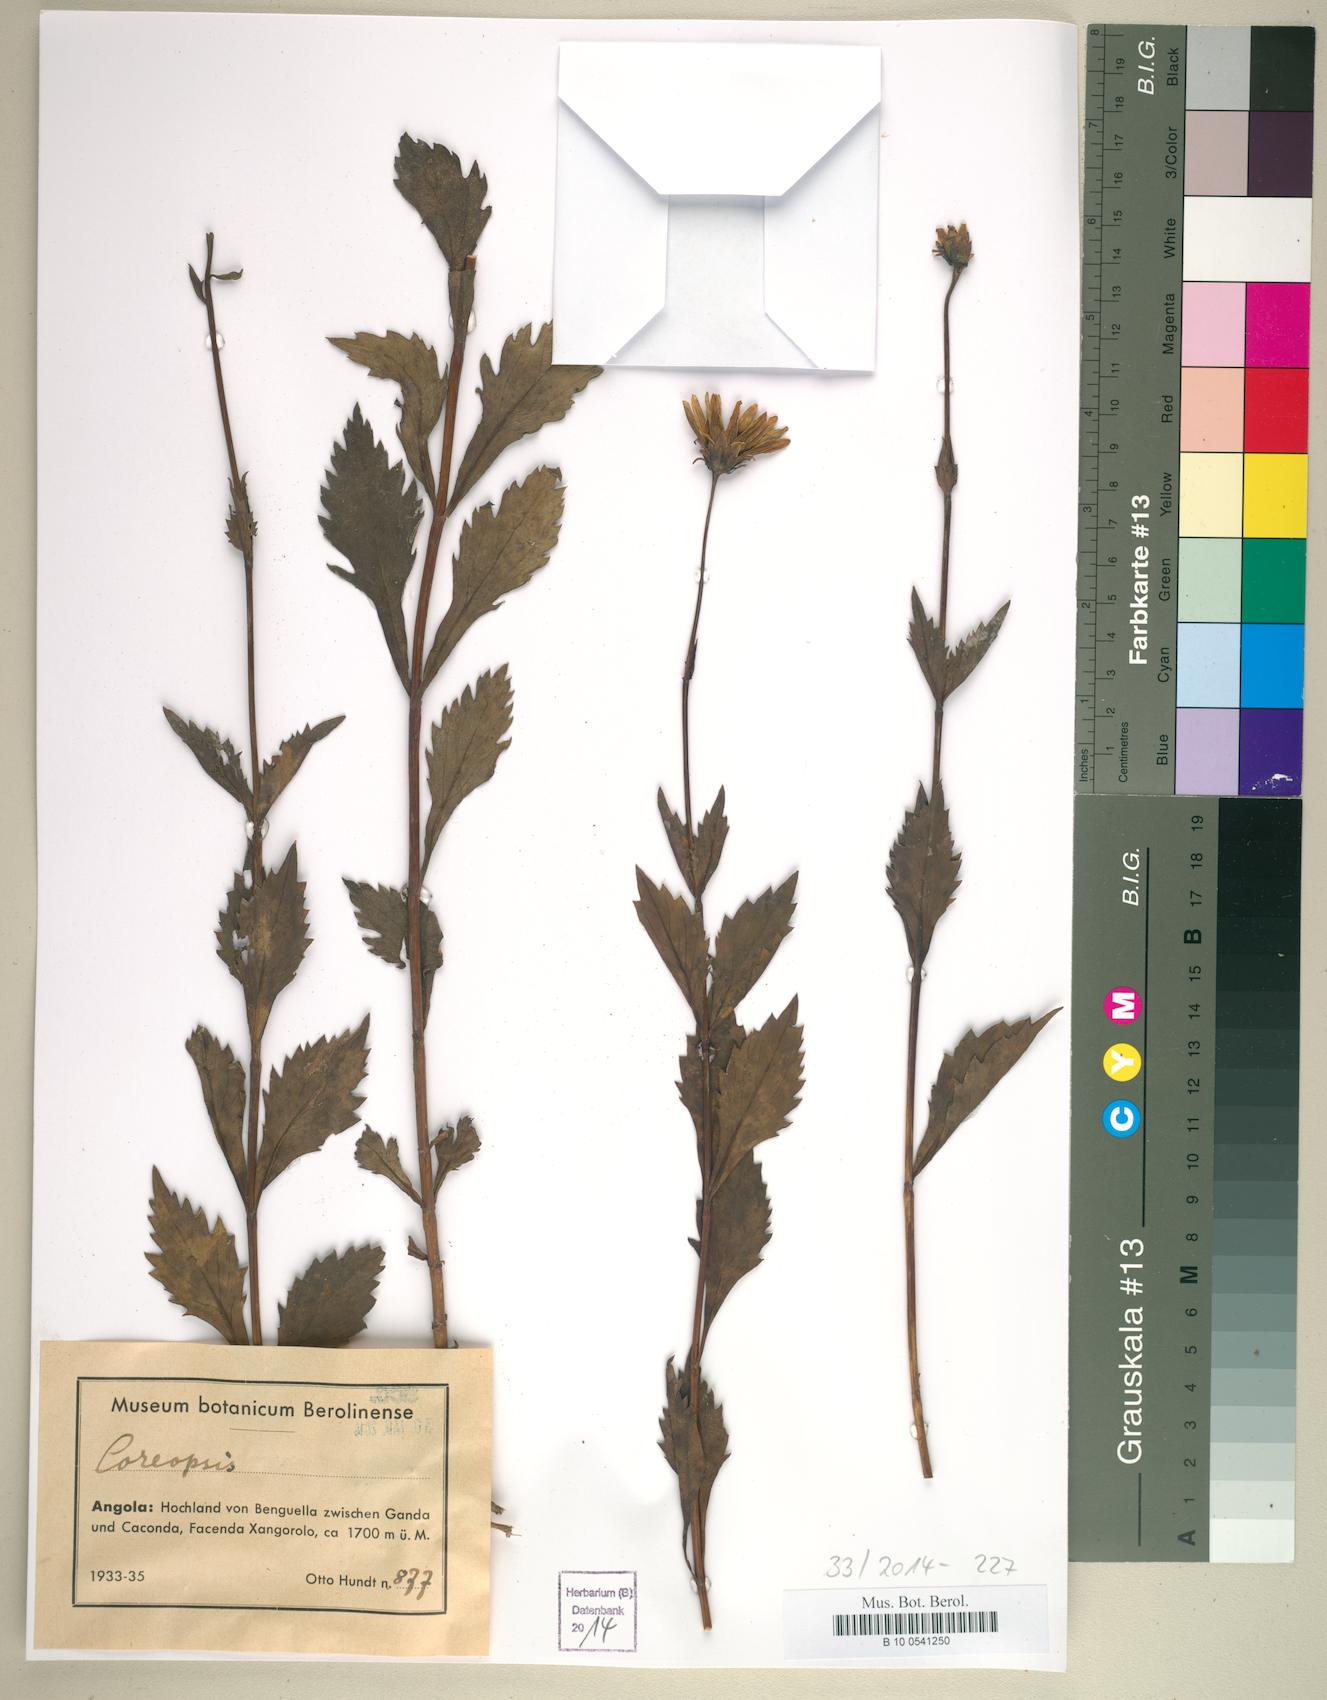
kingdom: Plantae
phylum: Tracheophyta
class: Magnoliopsida
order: Asterales
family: Asteraceae
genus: Coreopsis
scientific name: Coreopsis
